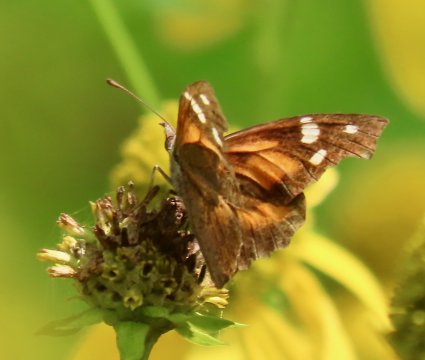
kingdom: Animalia
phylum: Arthropoda
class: Insecta
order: Lepidoptera
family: Nymphalidae
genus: Libytheana
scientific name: Libytheana carinenta
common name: American Snout
